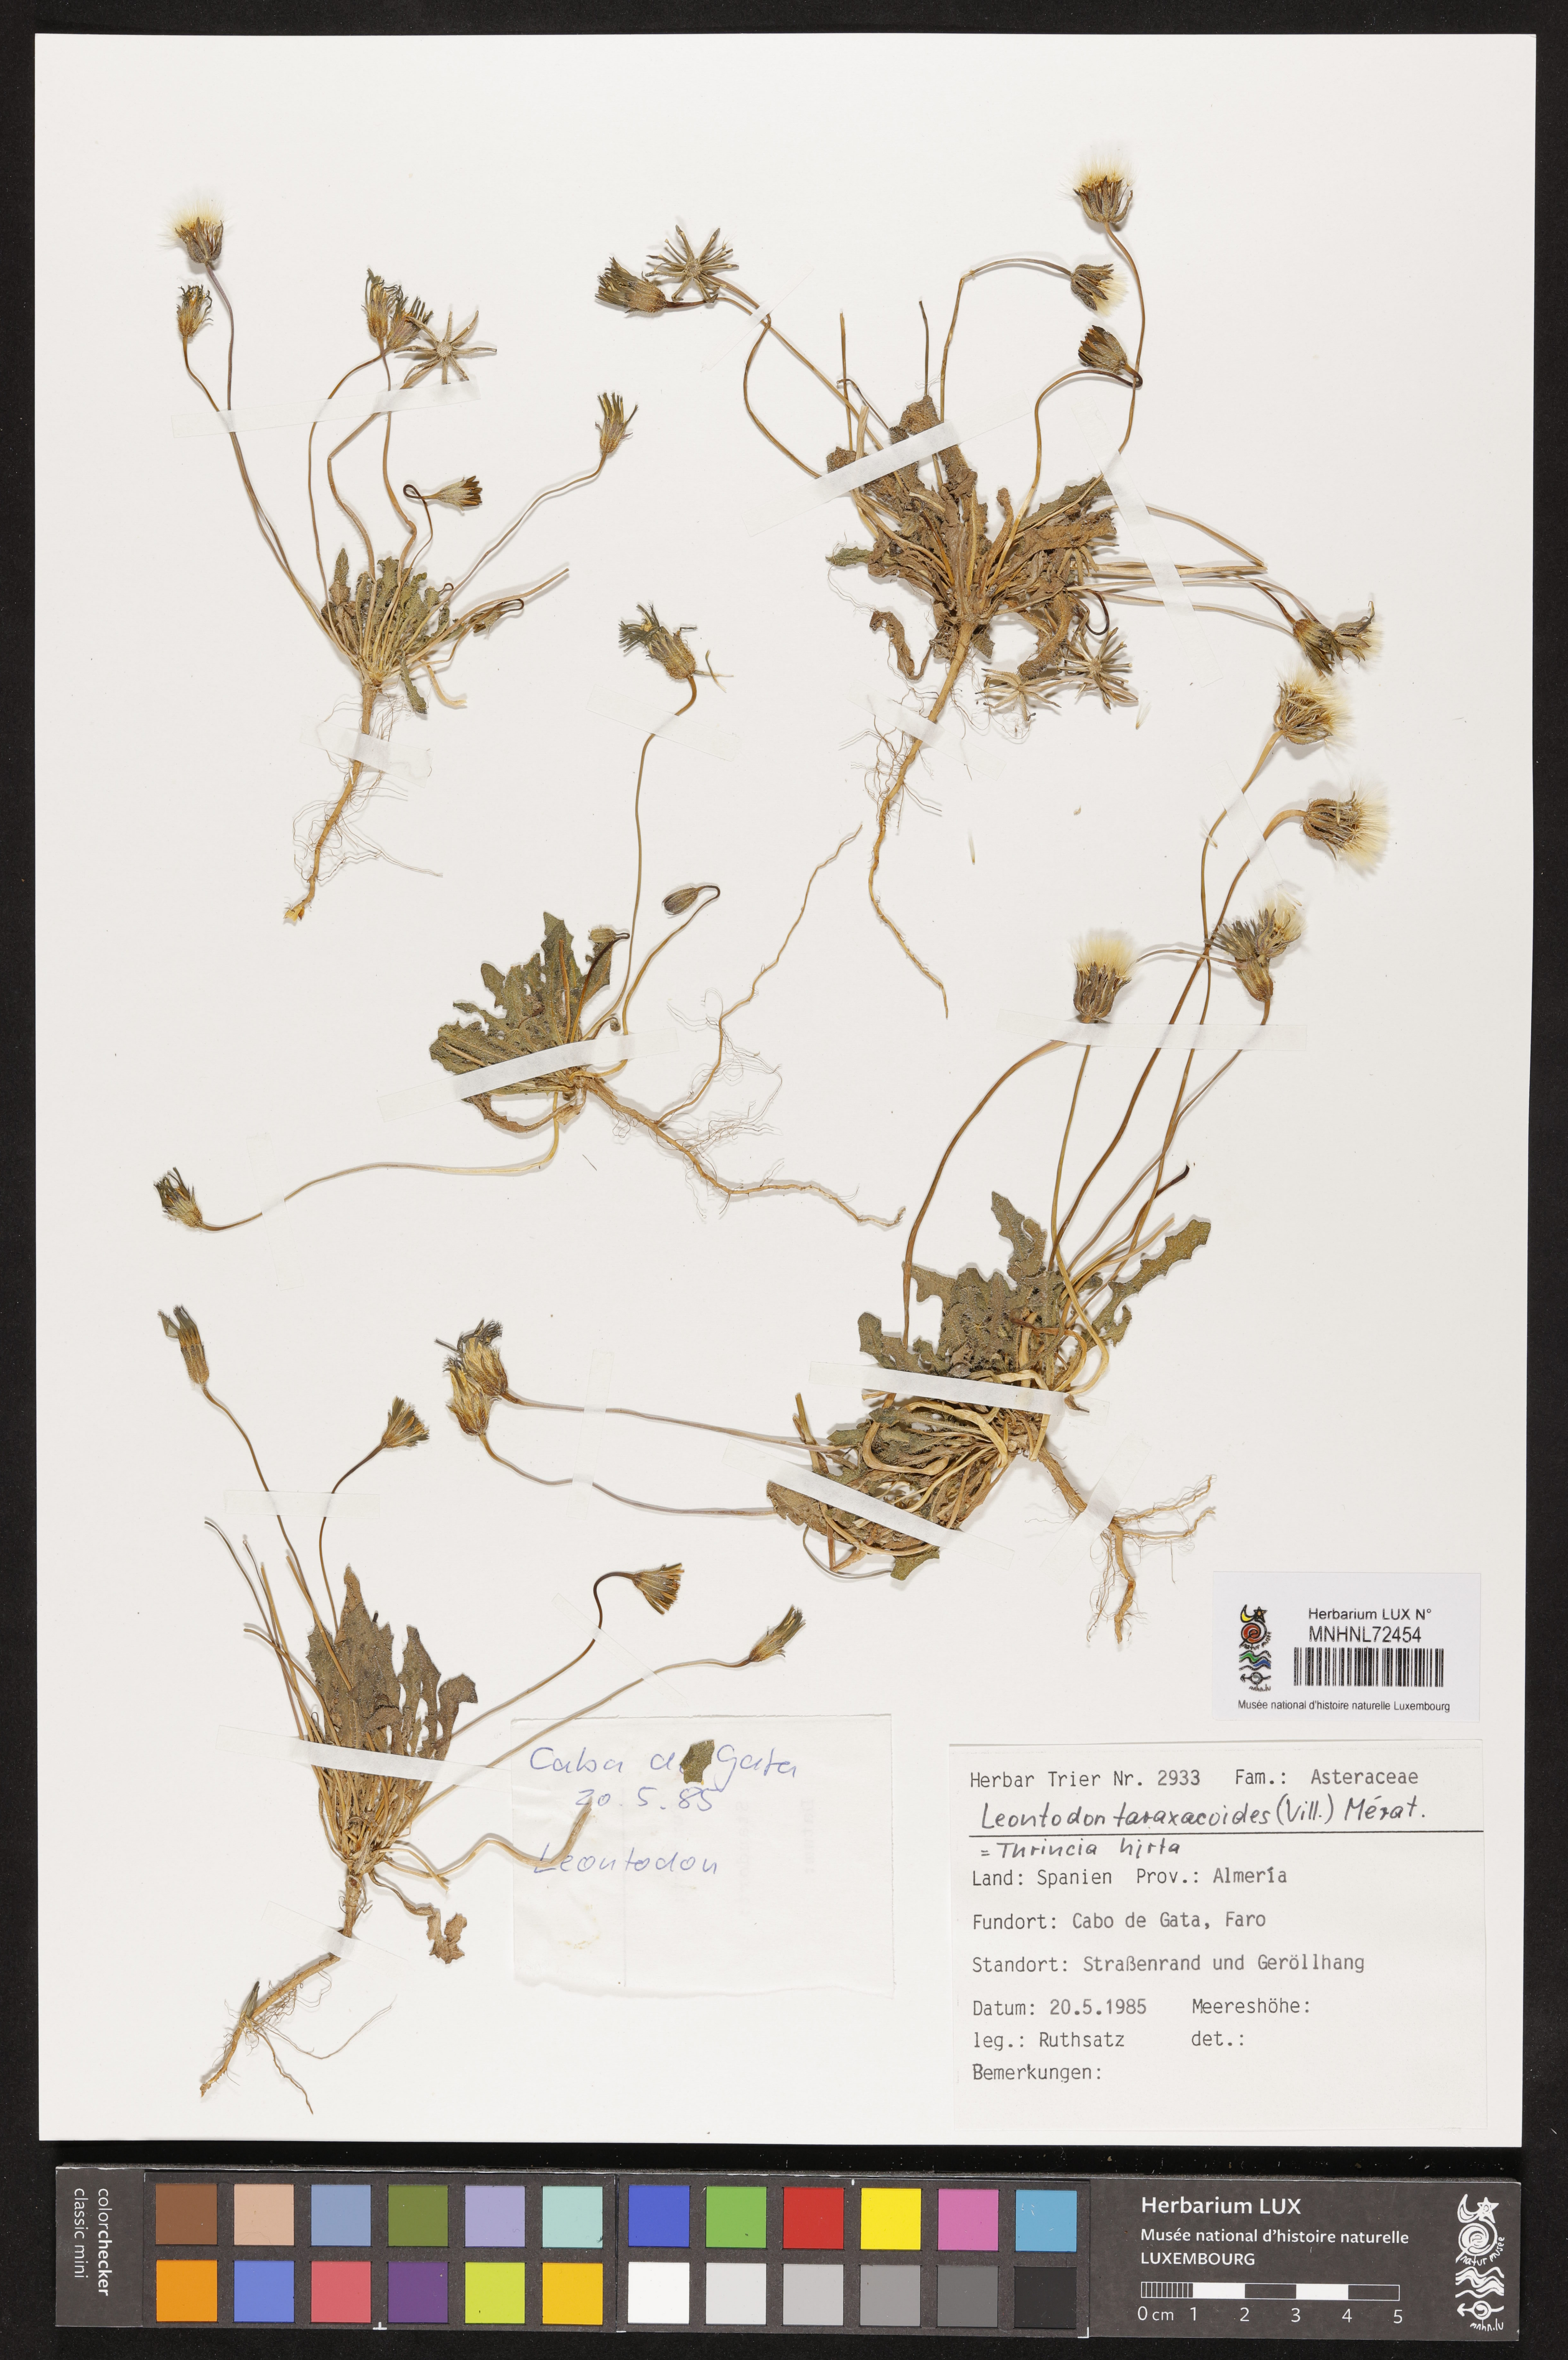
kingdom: Plantae
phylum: Tracheophyta
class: Magnoliopsida
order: Asterales
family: Asteraceae
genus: Thrincia
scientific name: Thrincia saxatilis
